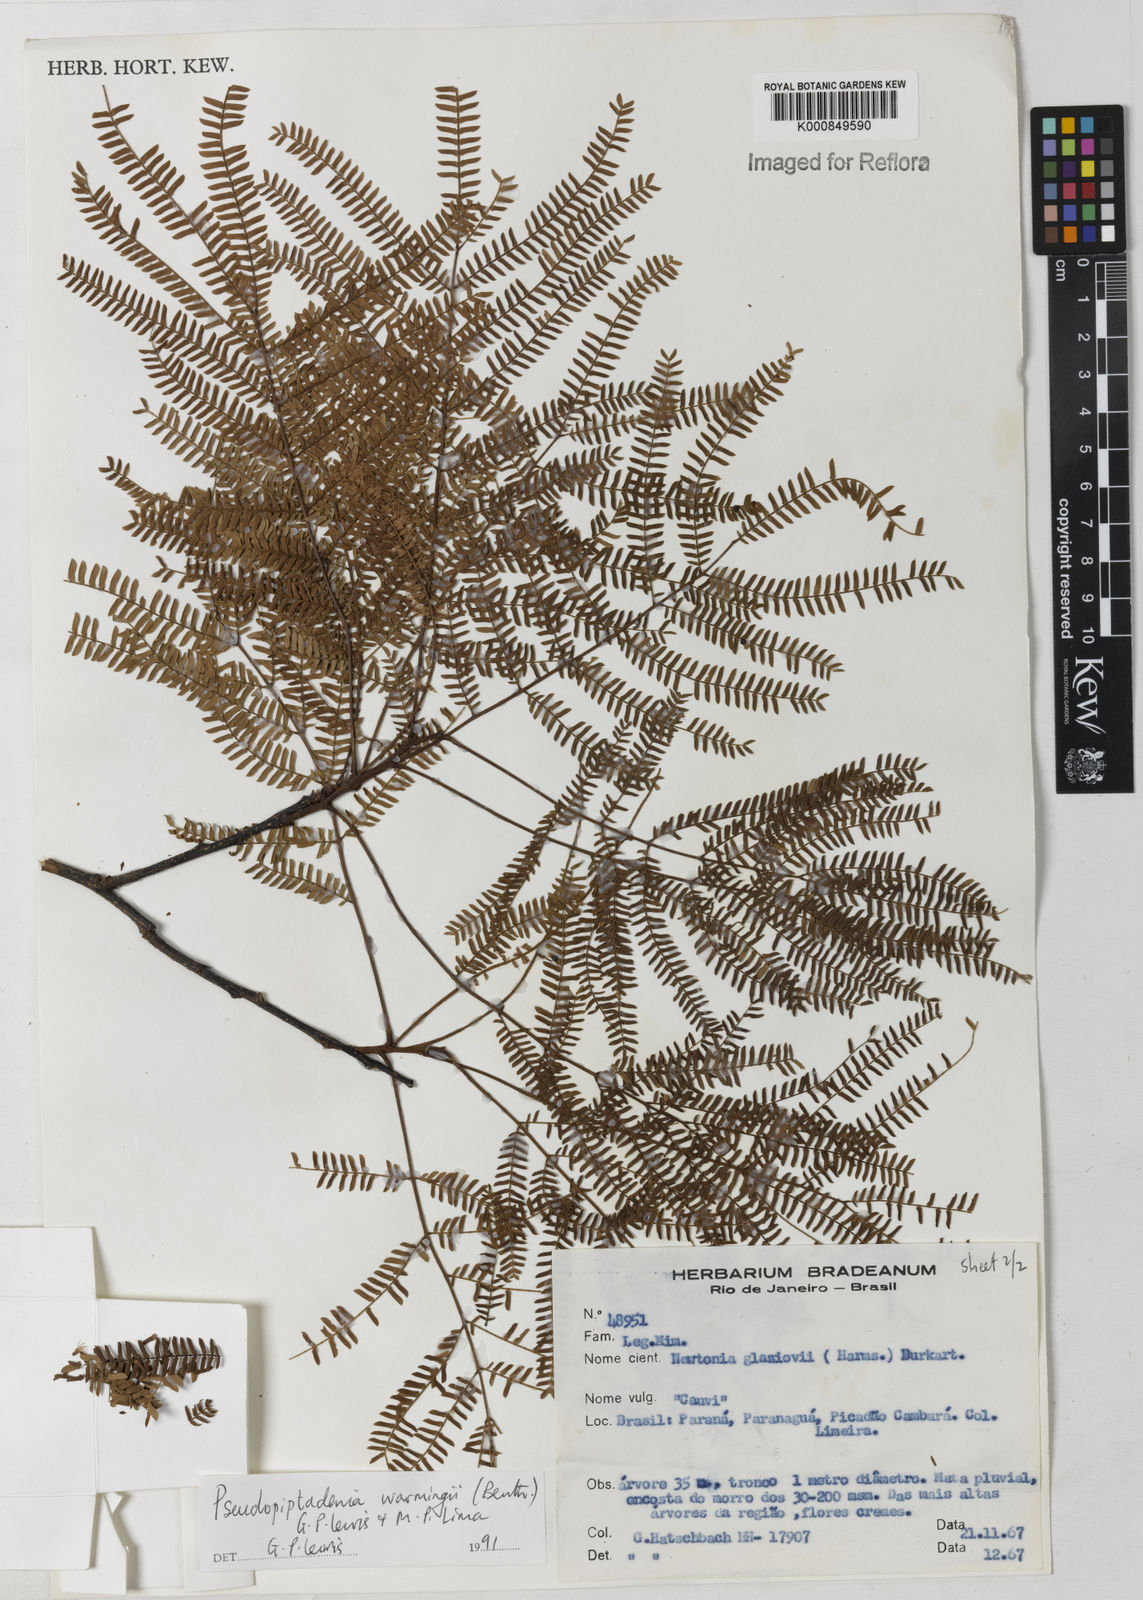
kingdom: Plantae
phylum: Tracheophyta
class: Magnoliopsida
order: Fabales
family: Fabaceae
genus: Pseudopiptadenia
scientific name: Pseudopiptadenia warmingii
